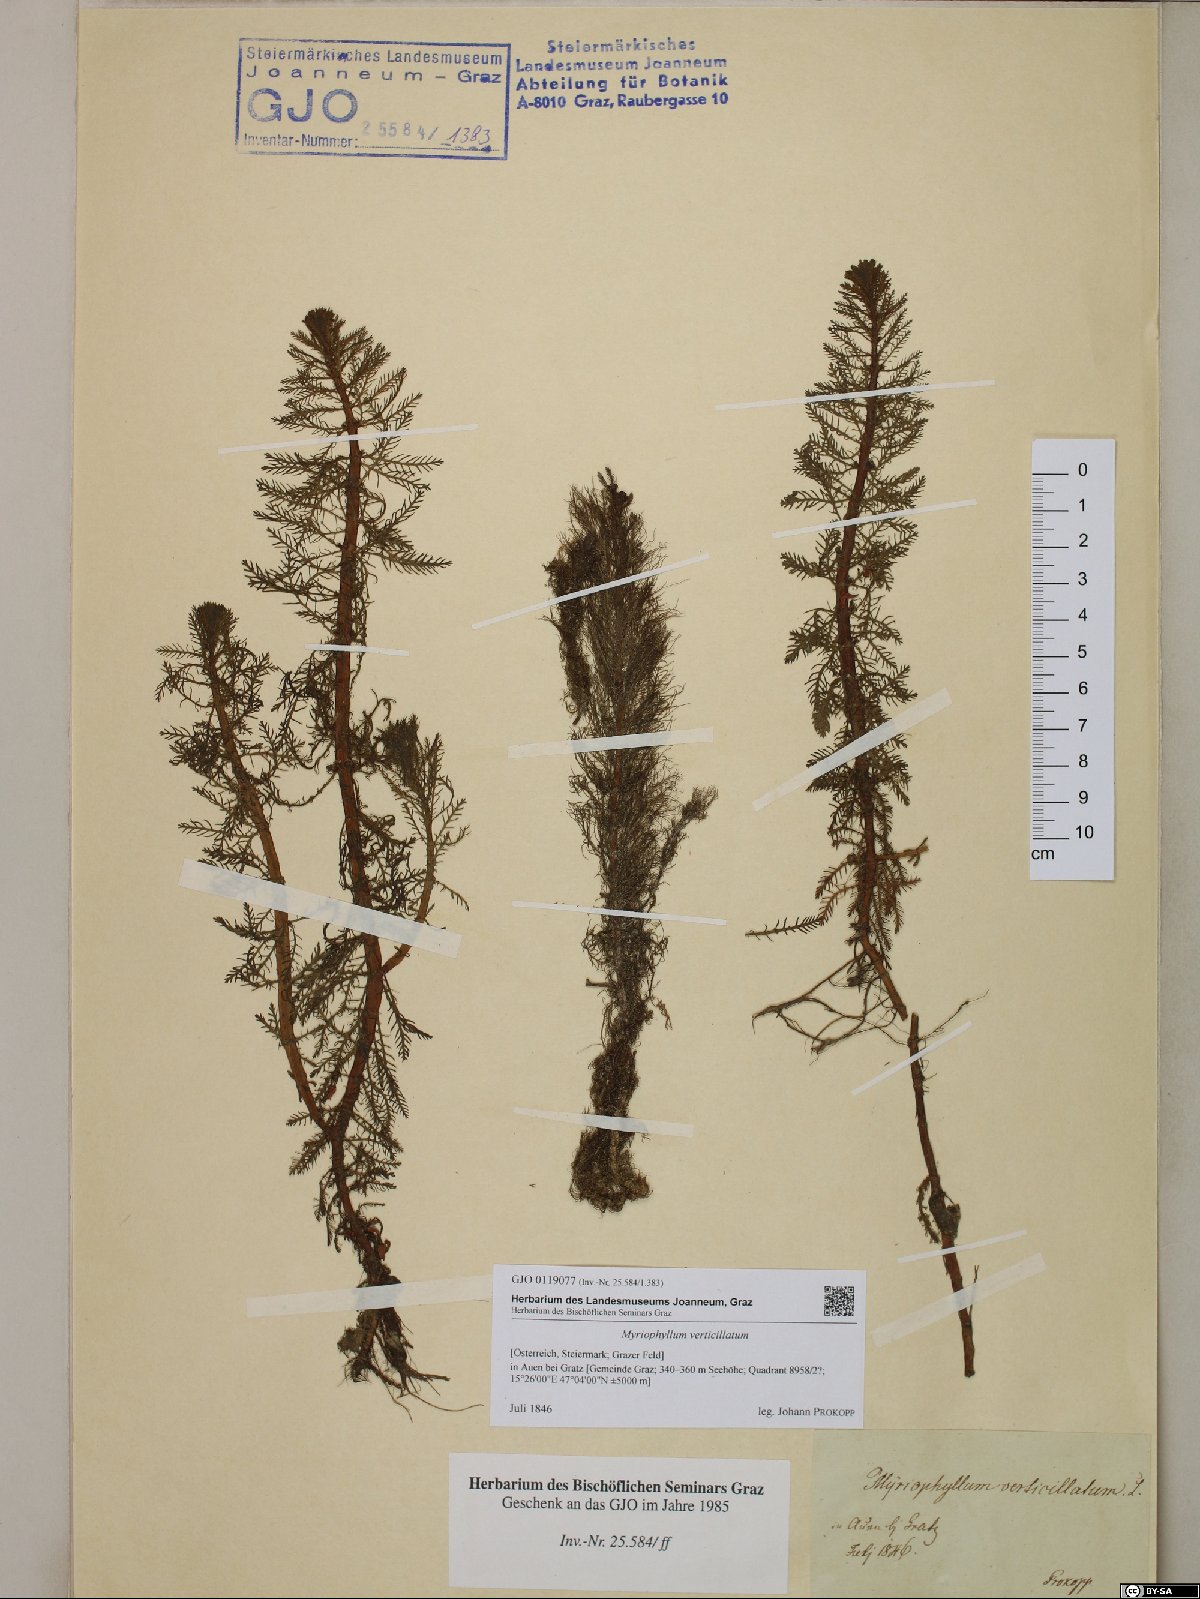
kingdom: Plantae
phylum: Tracheophyta
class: Magnoliopsida
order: Saxifragales
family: Haloragaceae
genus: Myriophyllum
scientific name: Myriophyllum verticillatum
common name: Whorled water-milfoil
